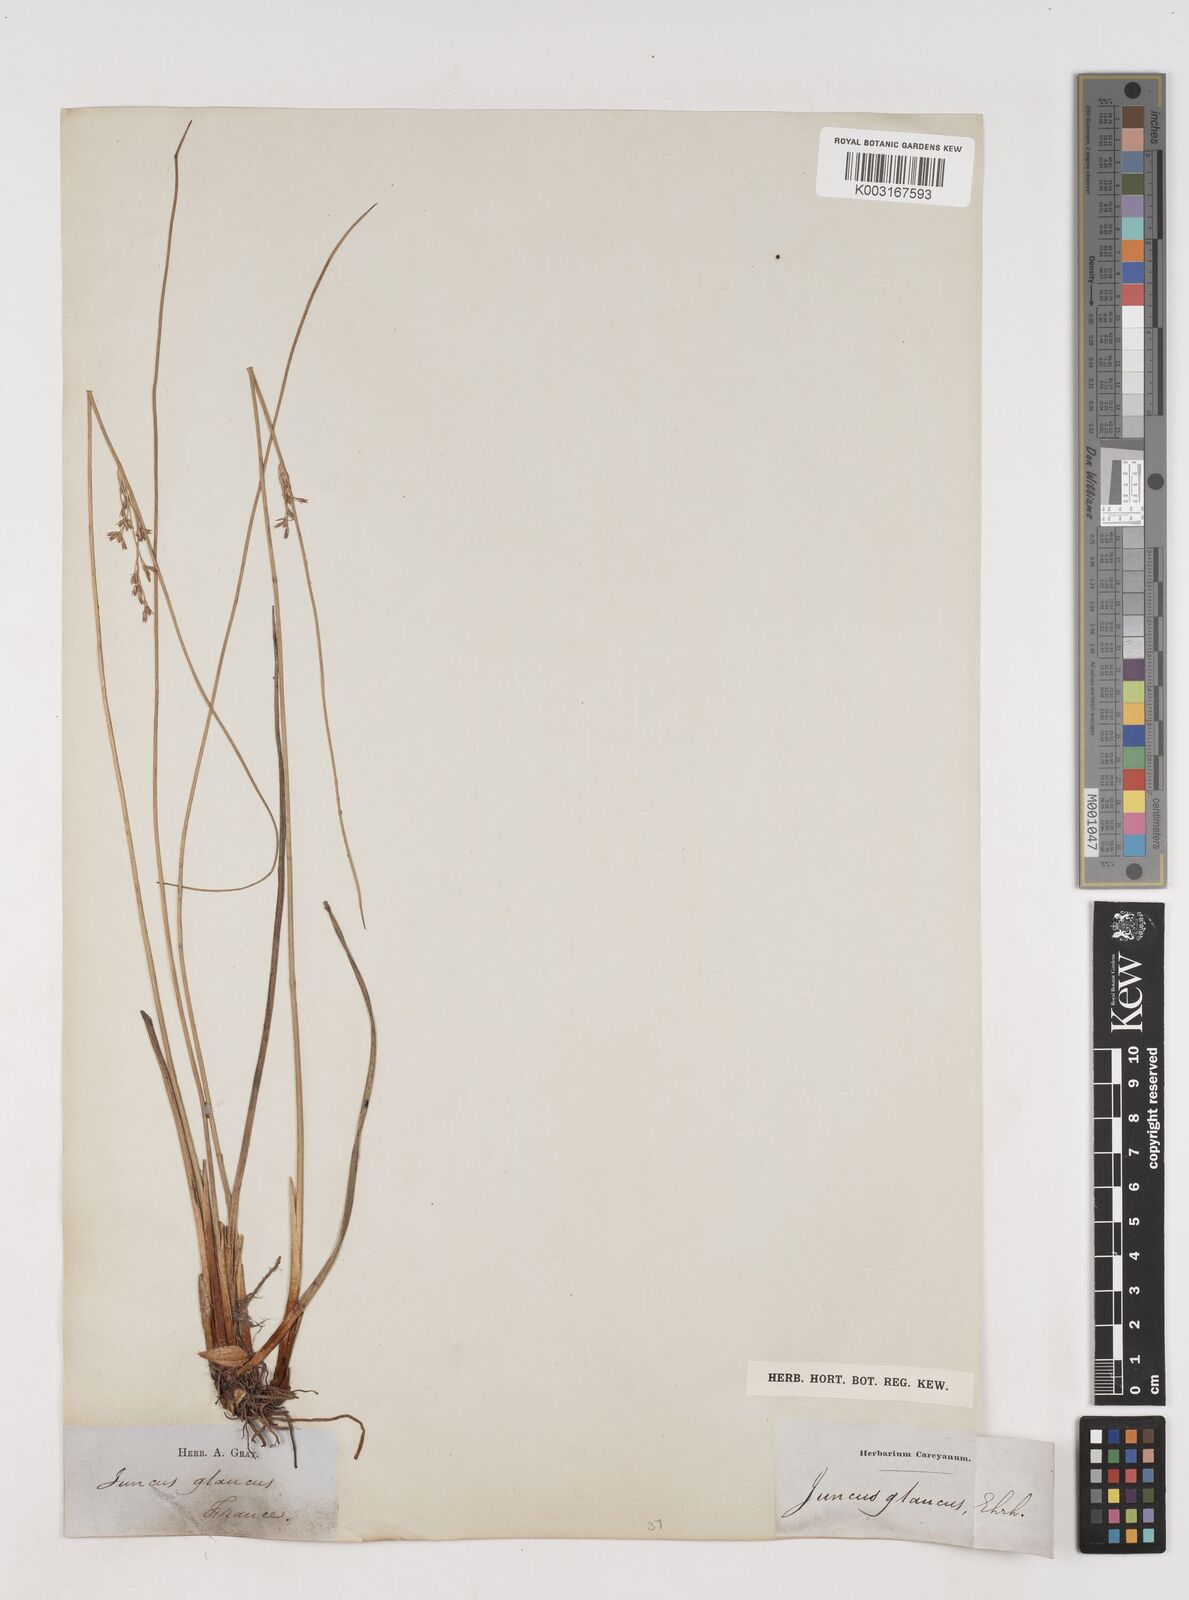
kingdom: Plantae
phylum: Tracheophyta
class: Liliopsida
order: Poales
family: Juncaceae
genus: Juncus
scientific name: Juncus inflexus
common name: Hard rush
